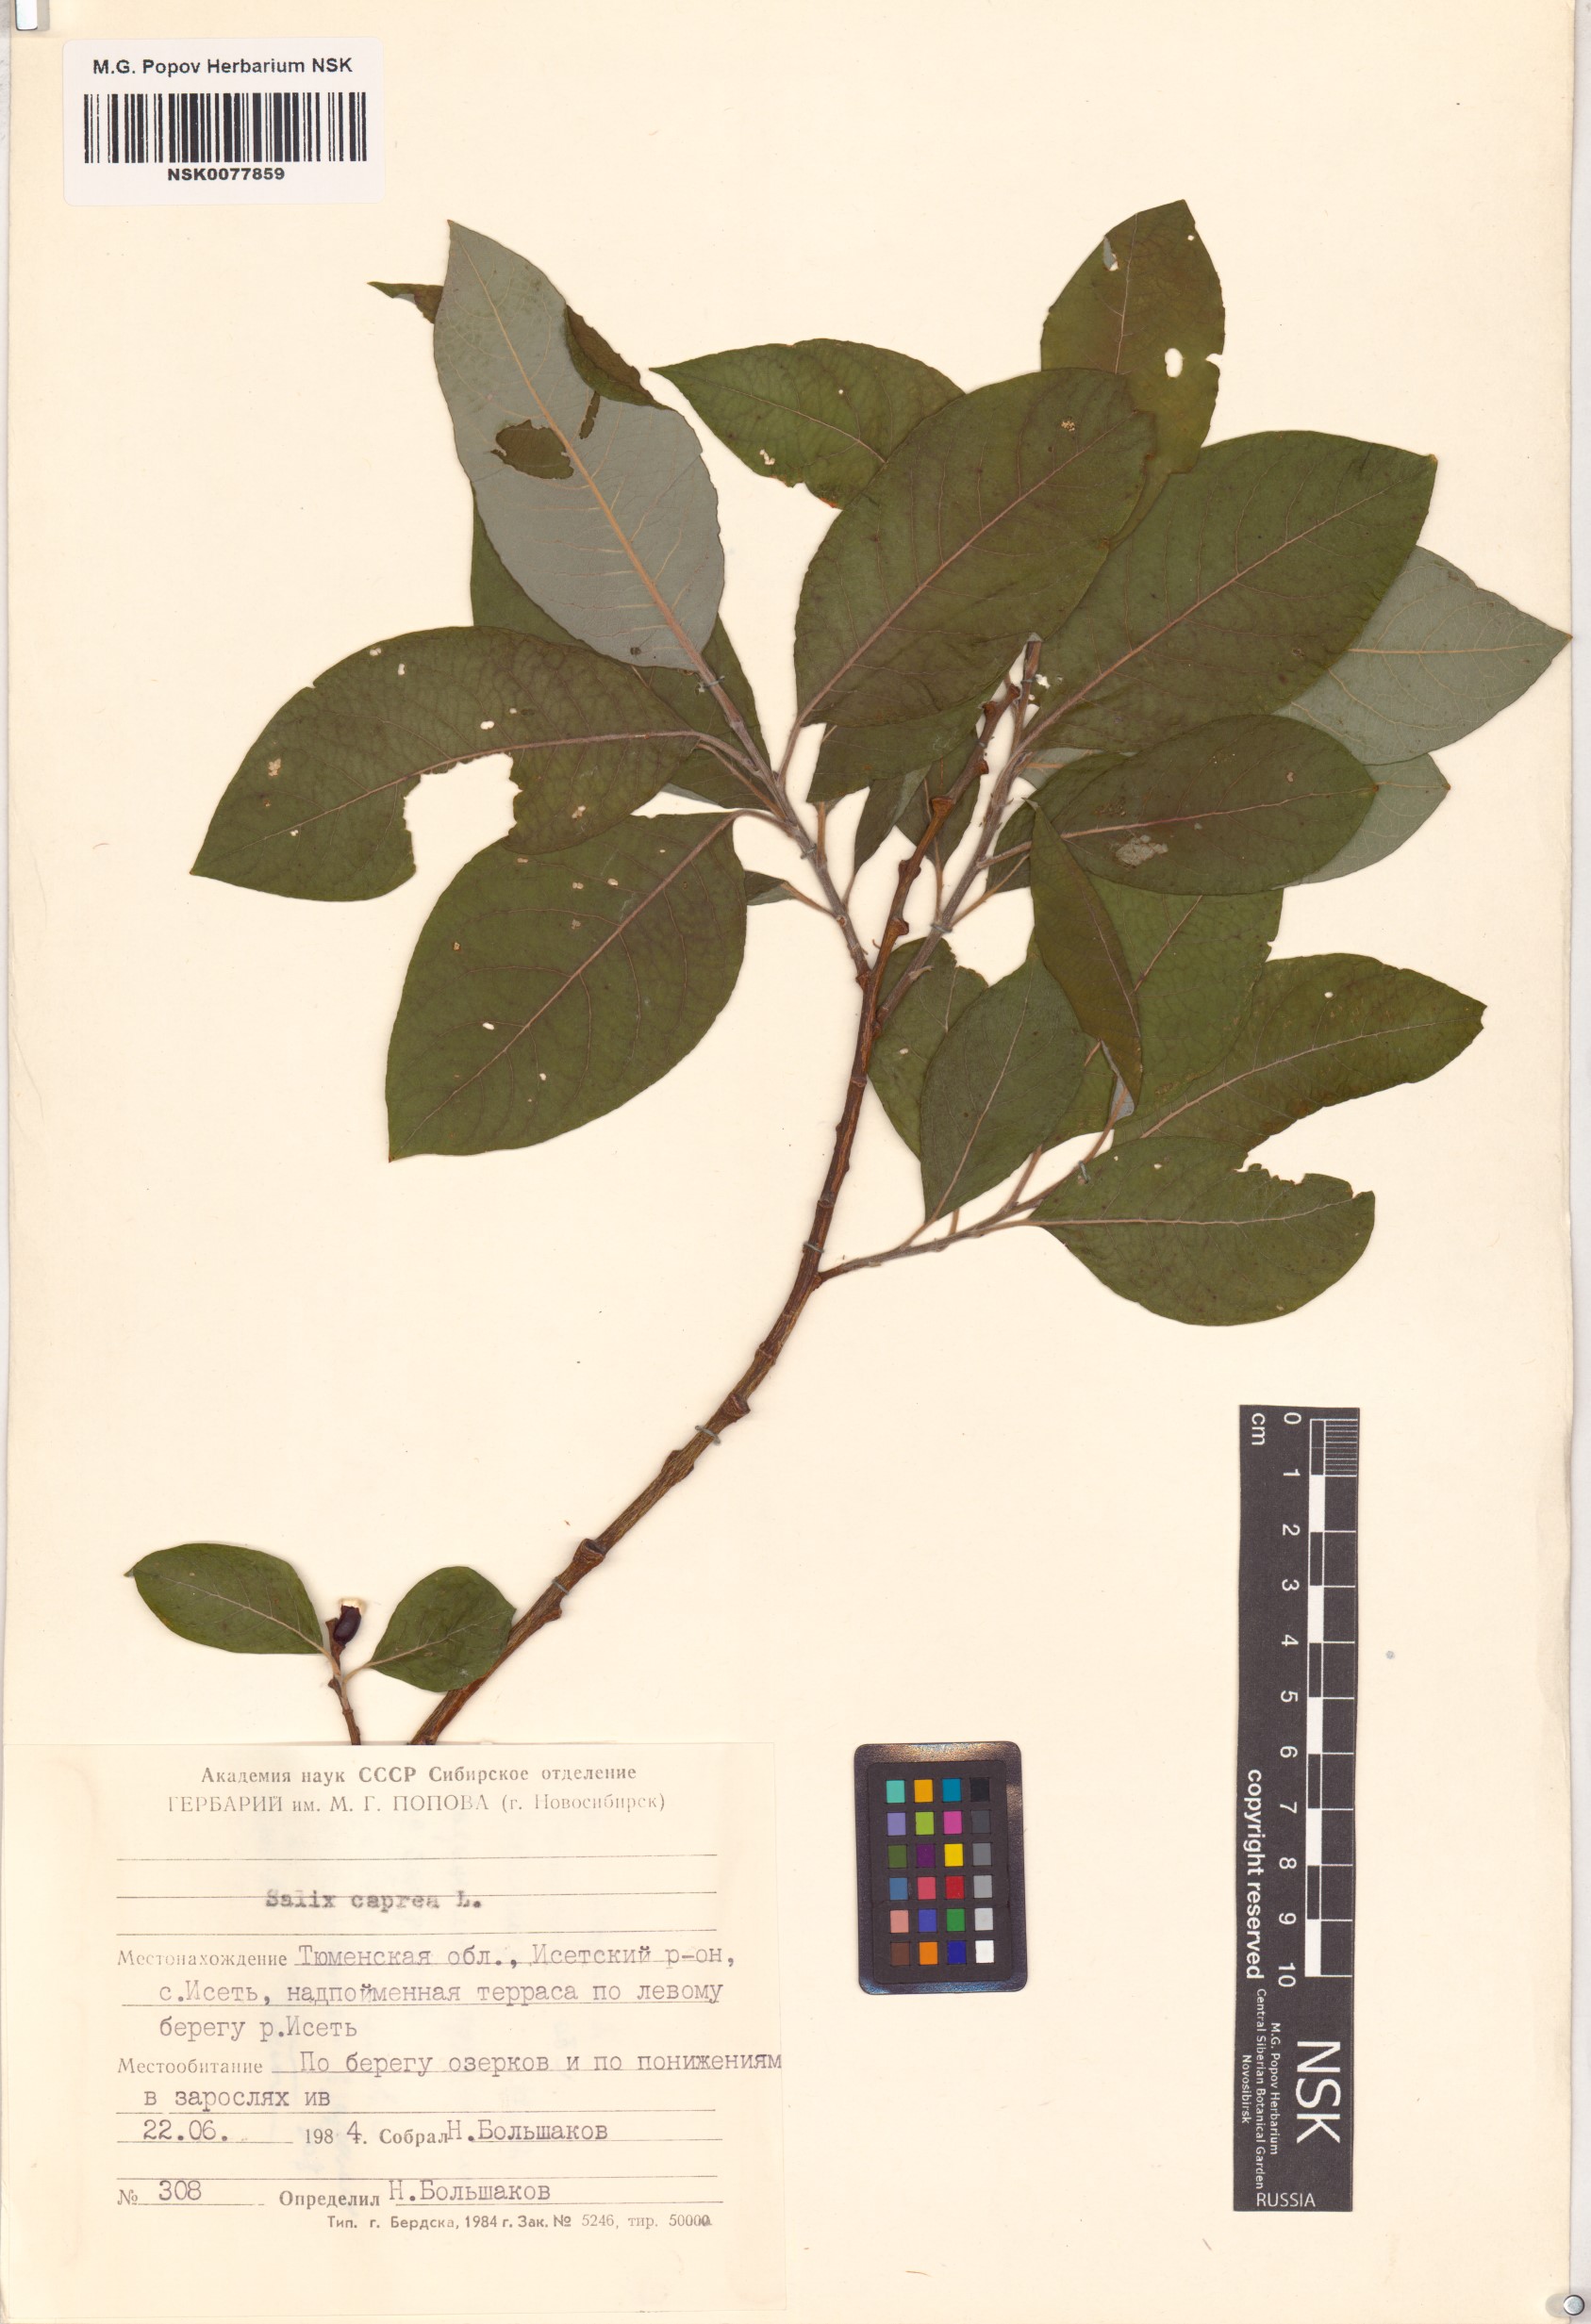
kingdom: Plantae
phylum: Tracheophyta
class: Magnoliopsida
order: Malpighiales
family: Salicaceae
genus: Salix
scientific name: Salix caprea
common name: Goat willow
